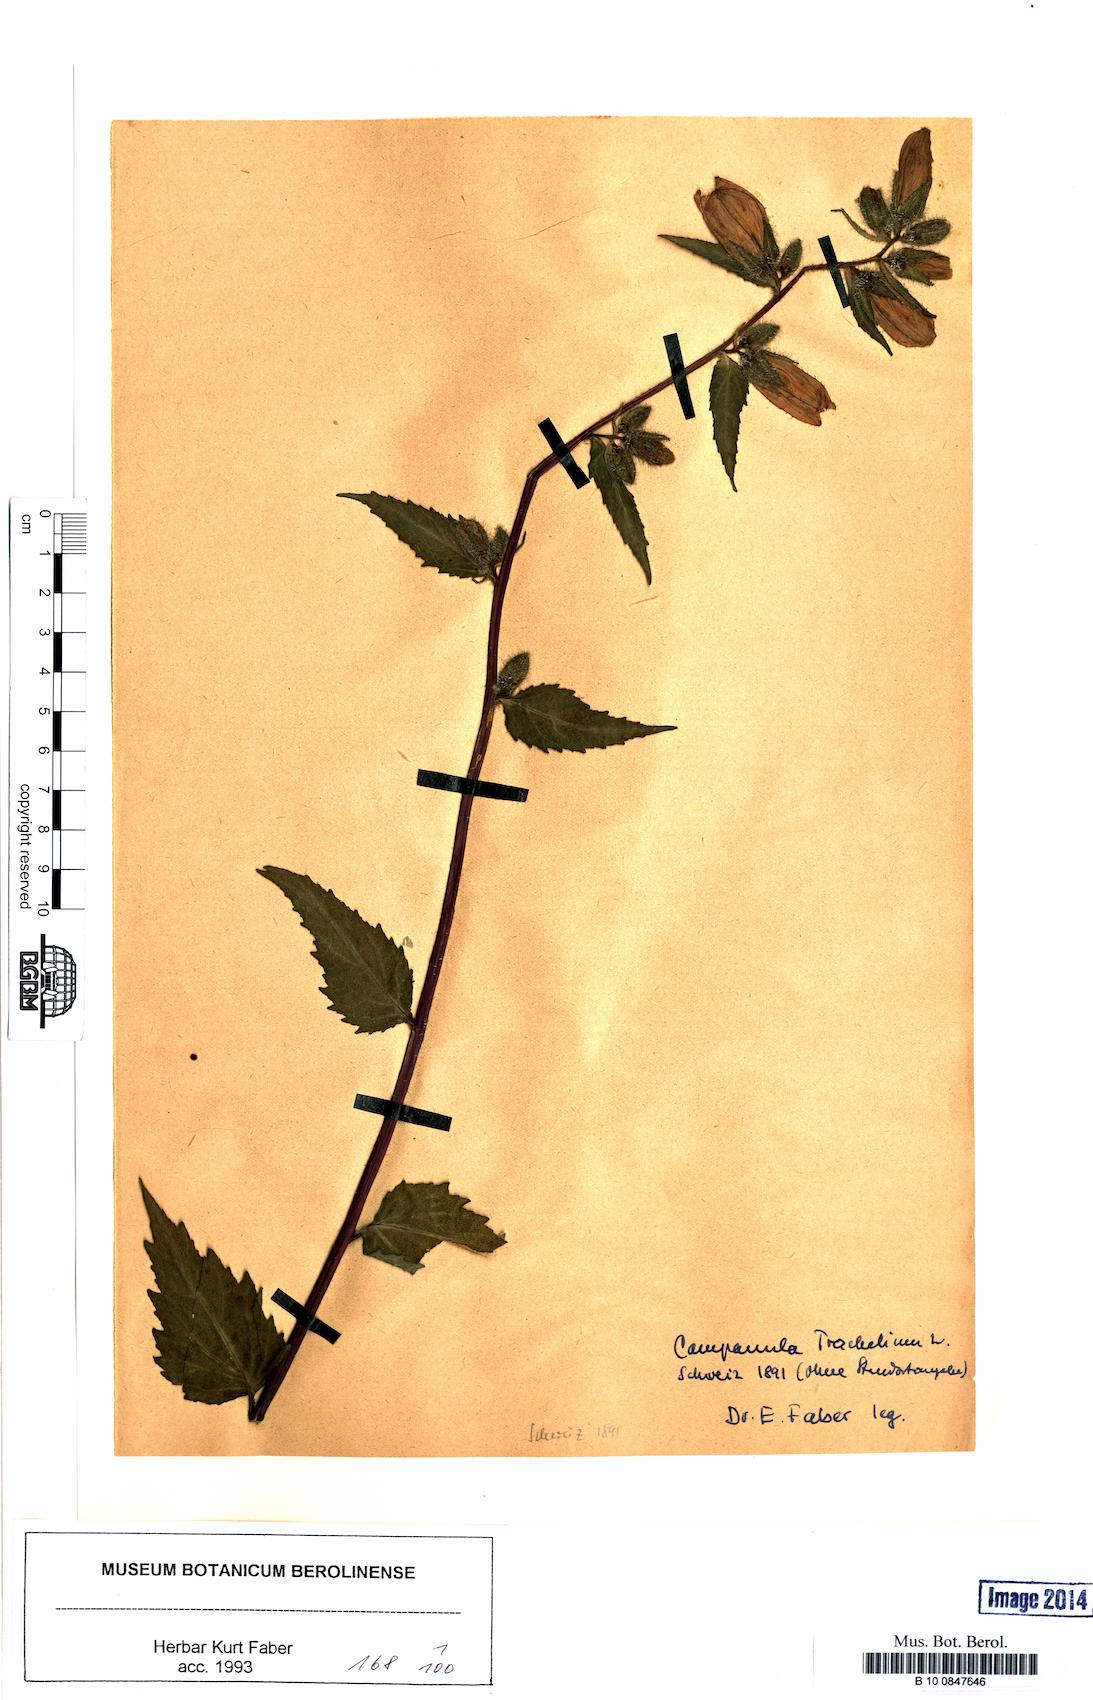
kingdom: Plantae
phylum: Tracheophyta
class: Magnoliopsida
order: Asterales
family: Campanulaceae
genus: Campanula
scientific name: Campanula trachelium
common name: Nettle-leaved bellflower
